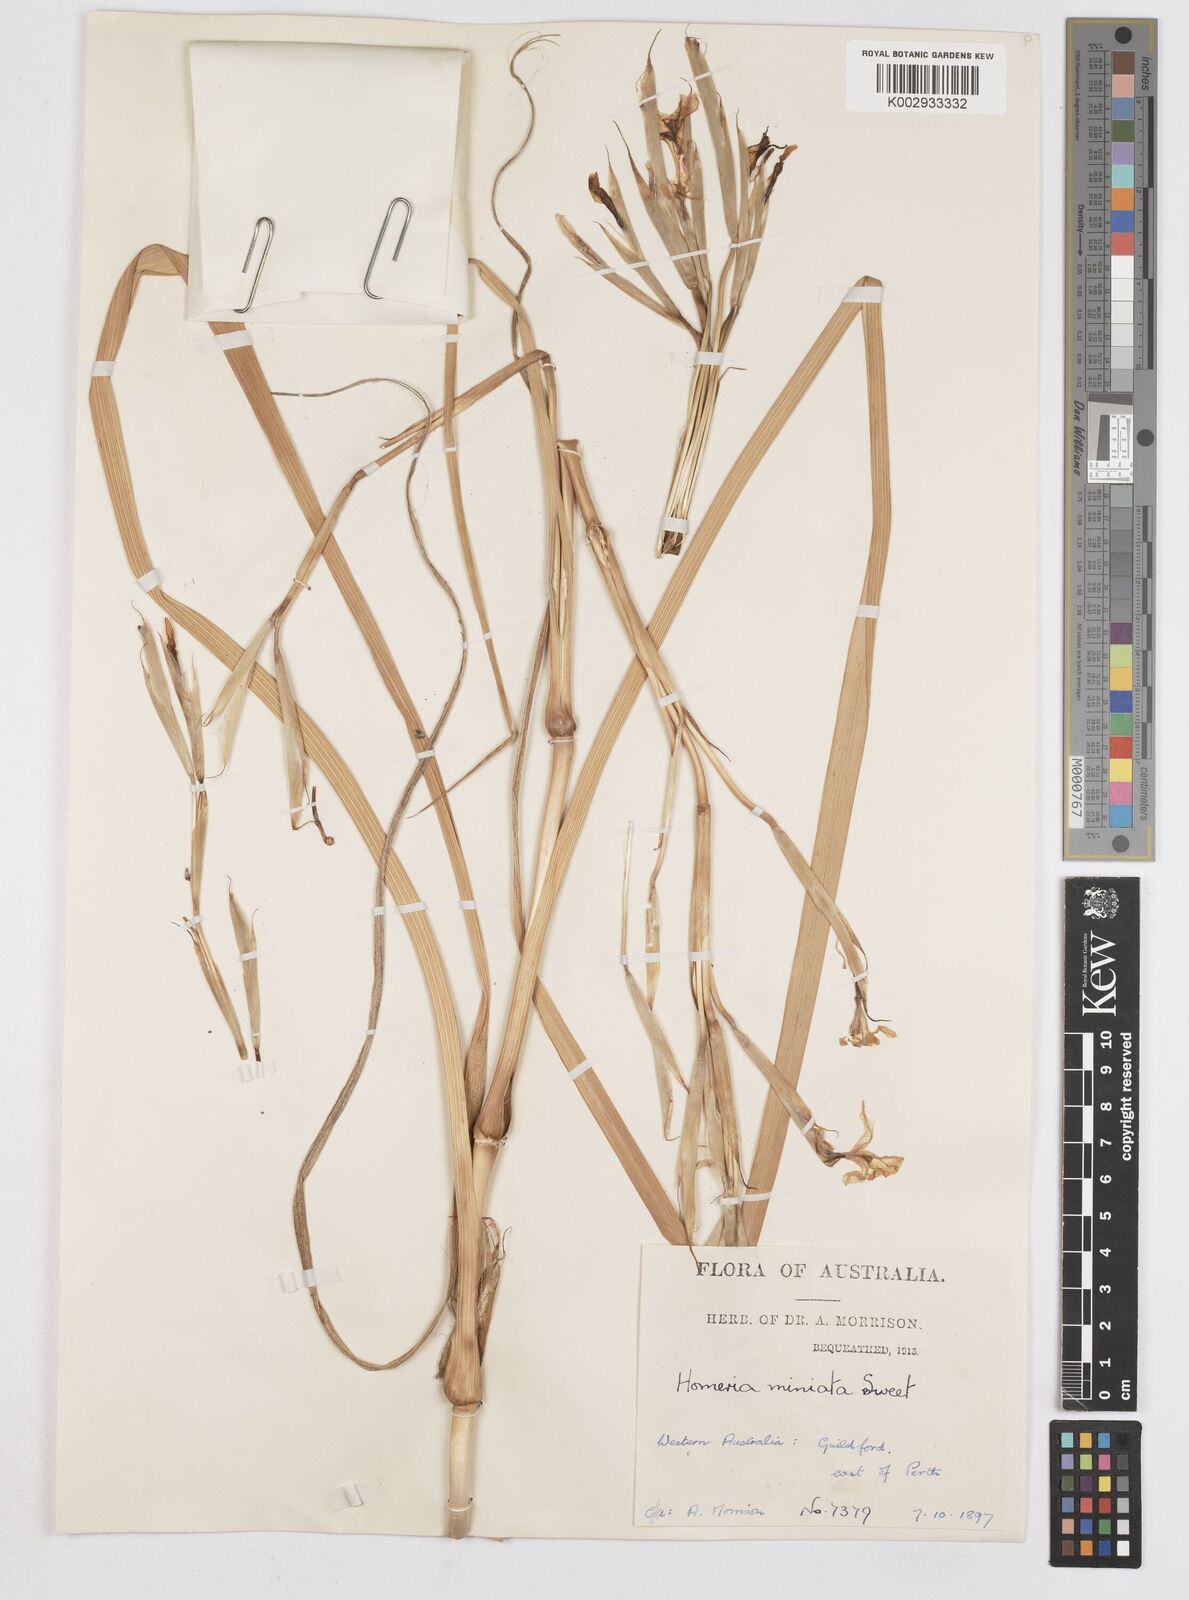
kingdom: Plantae
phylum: Tracheophyta
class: Liliopsida
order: Asparagales
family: Iridaceae
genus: Moraea
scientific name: Moraea miniata
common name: Two-leaf cape-tulip
